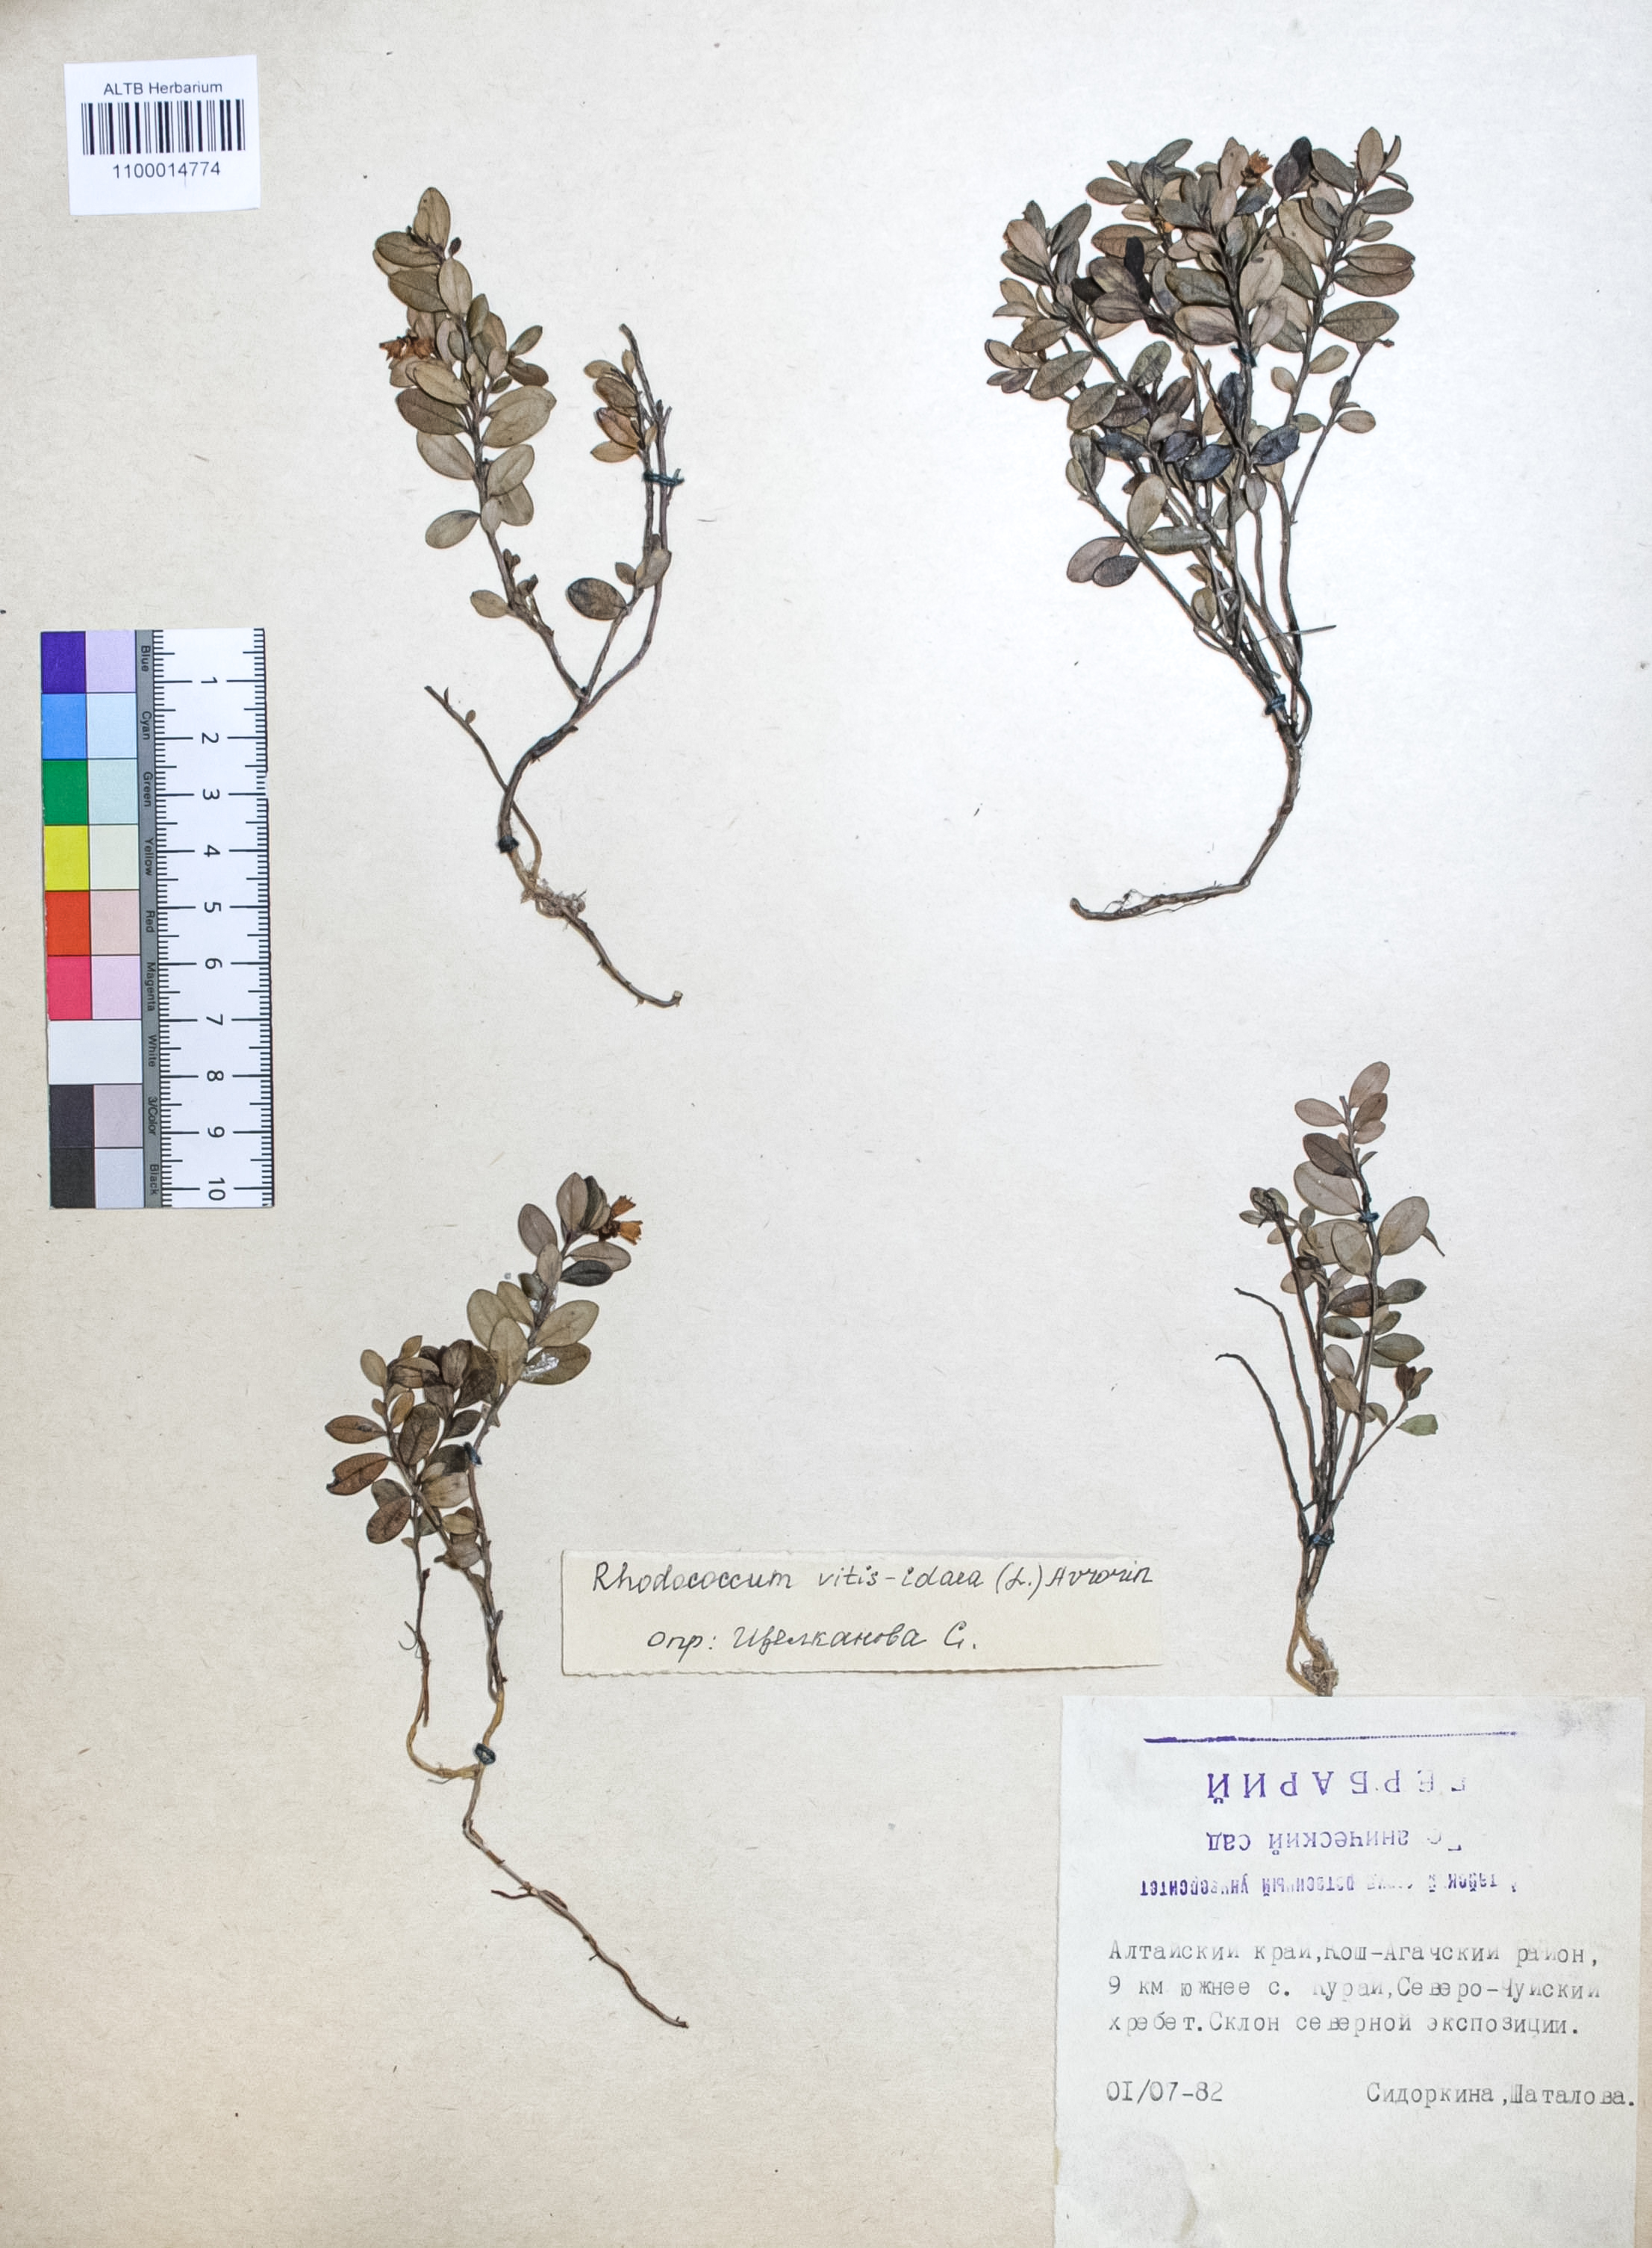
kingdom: Plantae
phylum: Tracheophyta
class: Magnoliopsida
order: Ericales
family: Ericaceae
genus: Vaccinium
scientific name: Vaccinium vitis-idaea
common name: Cowberry
